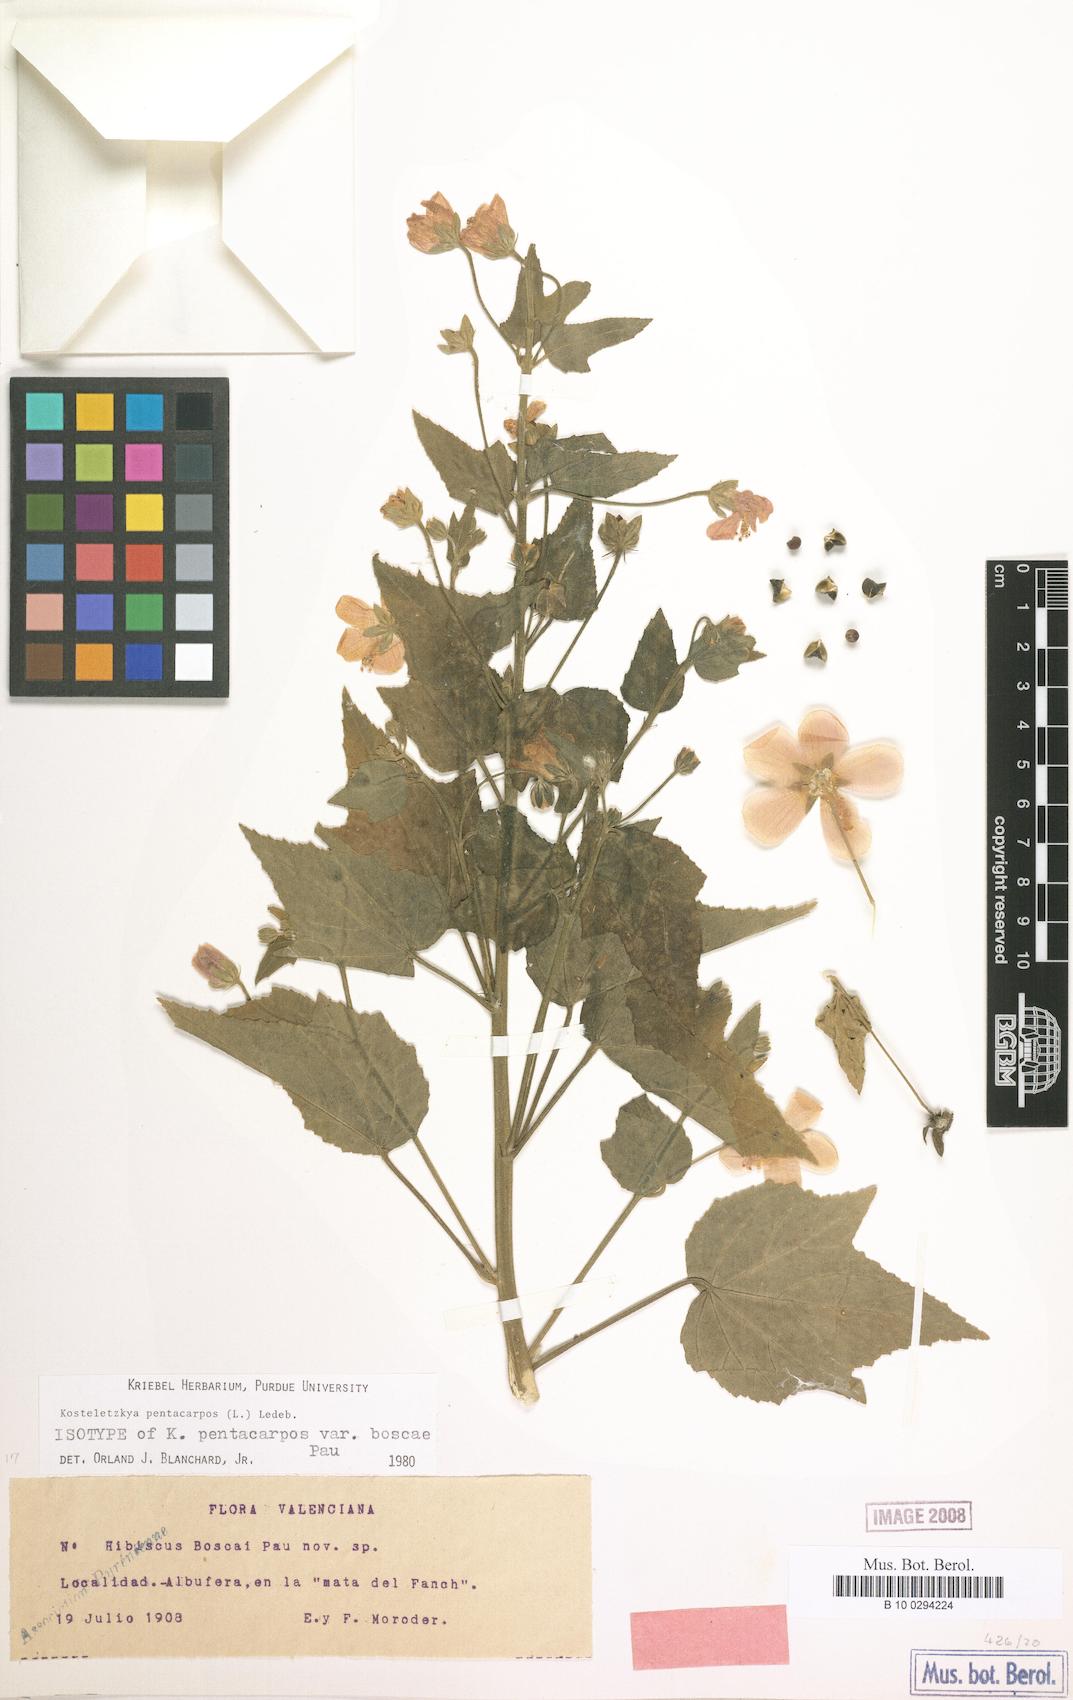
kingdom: Plantae
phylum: Tracheophyta
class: Magnoliopsida
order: Malvales
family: Malvaceae
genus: Kosteletzkya
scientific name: Kosteletzkya pentacarpos
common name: Virginia saltmarsh mallow
